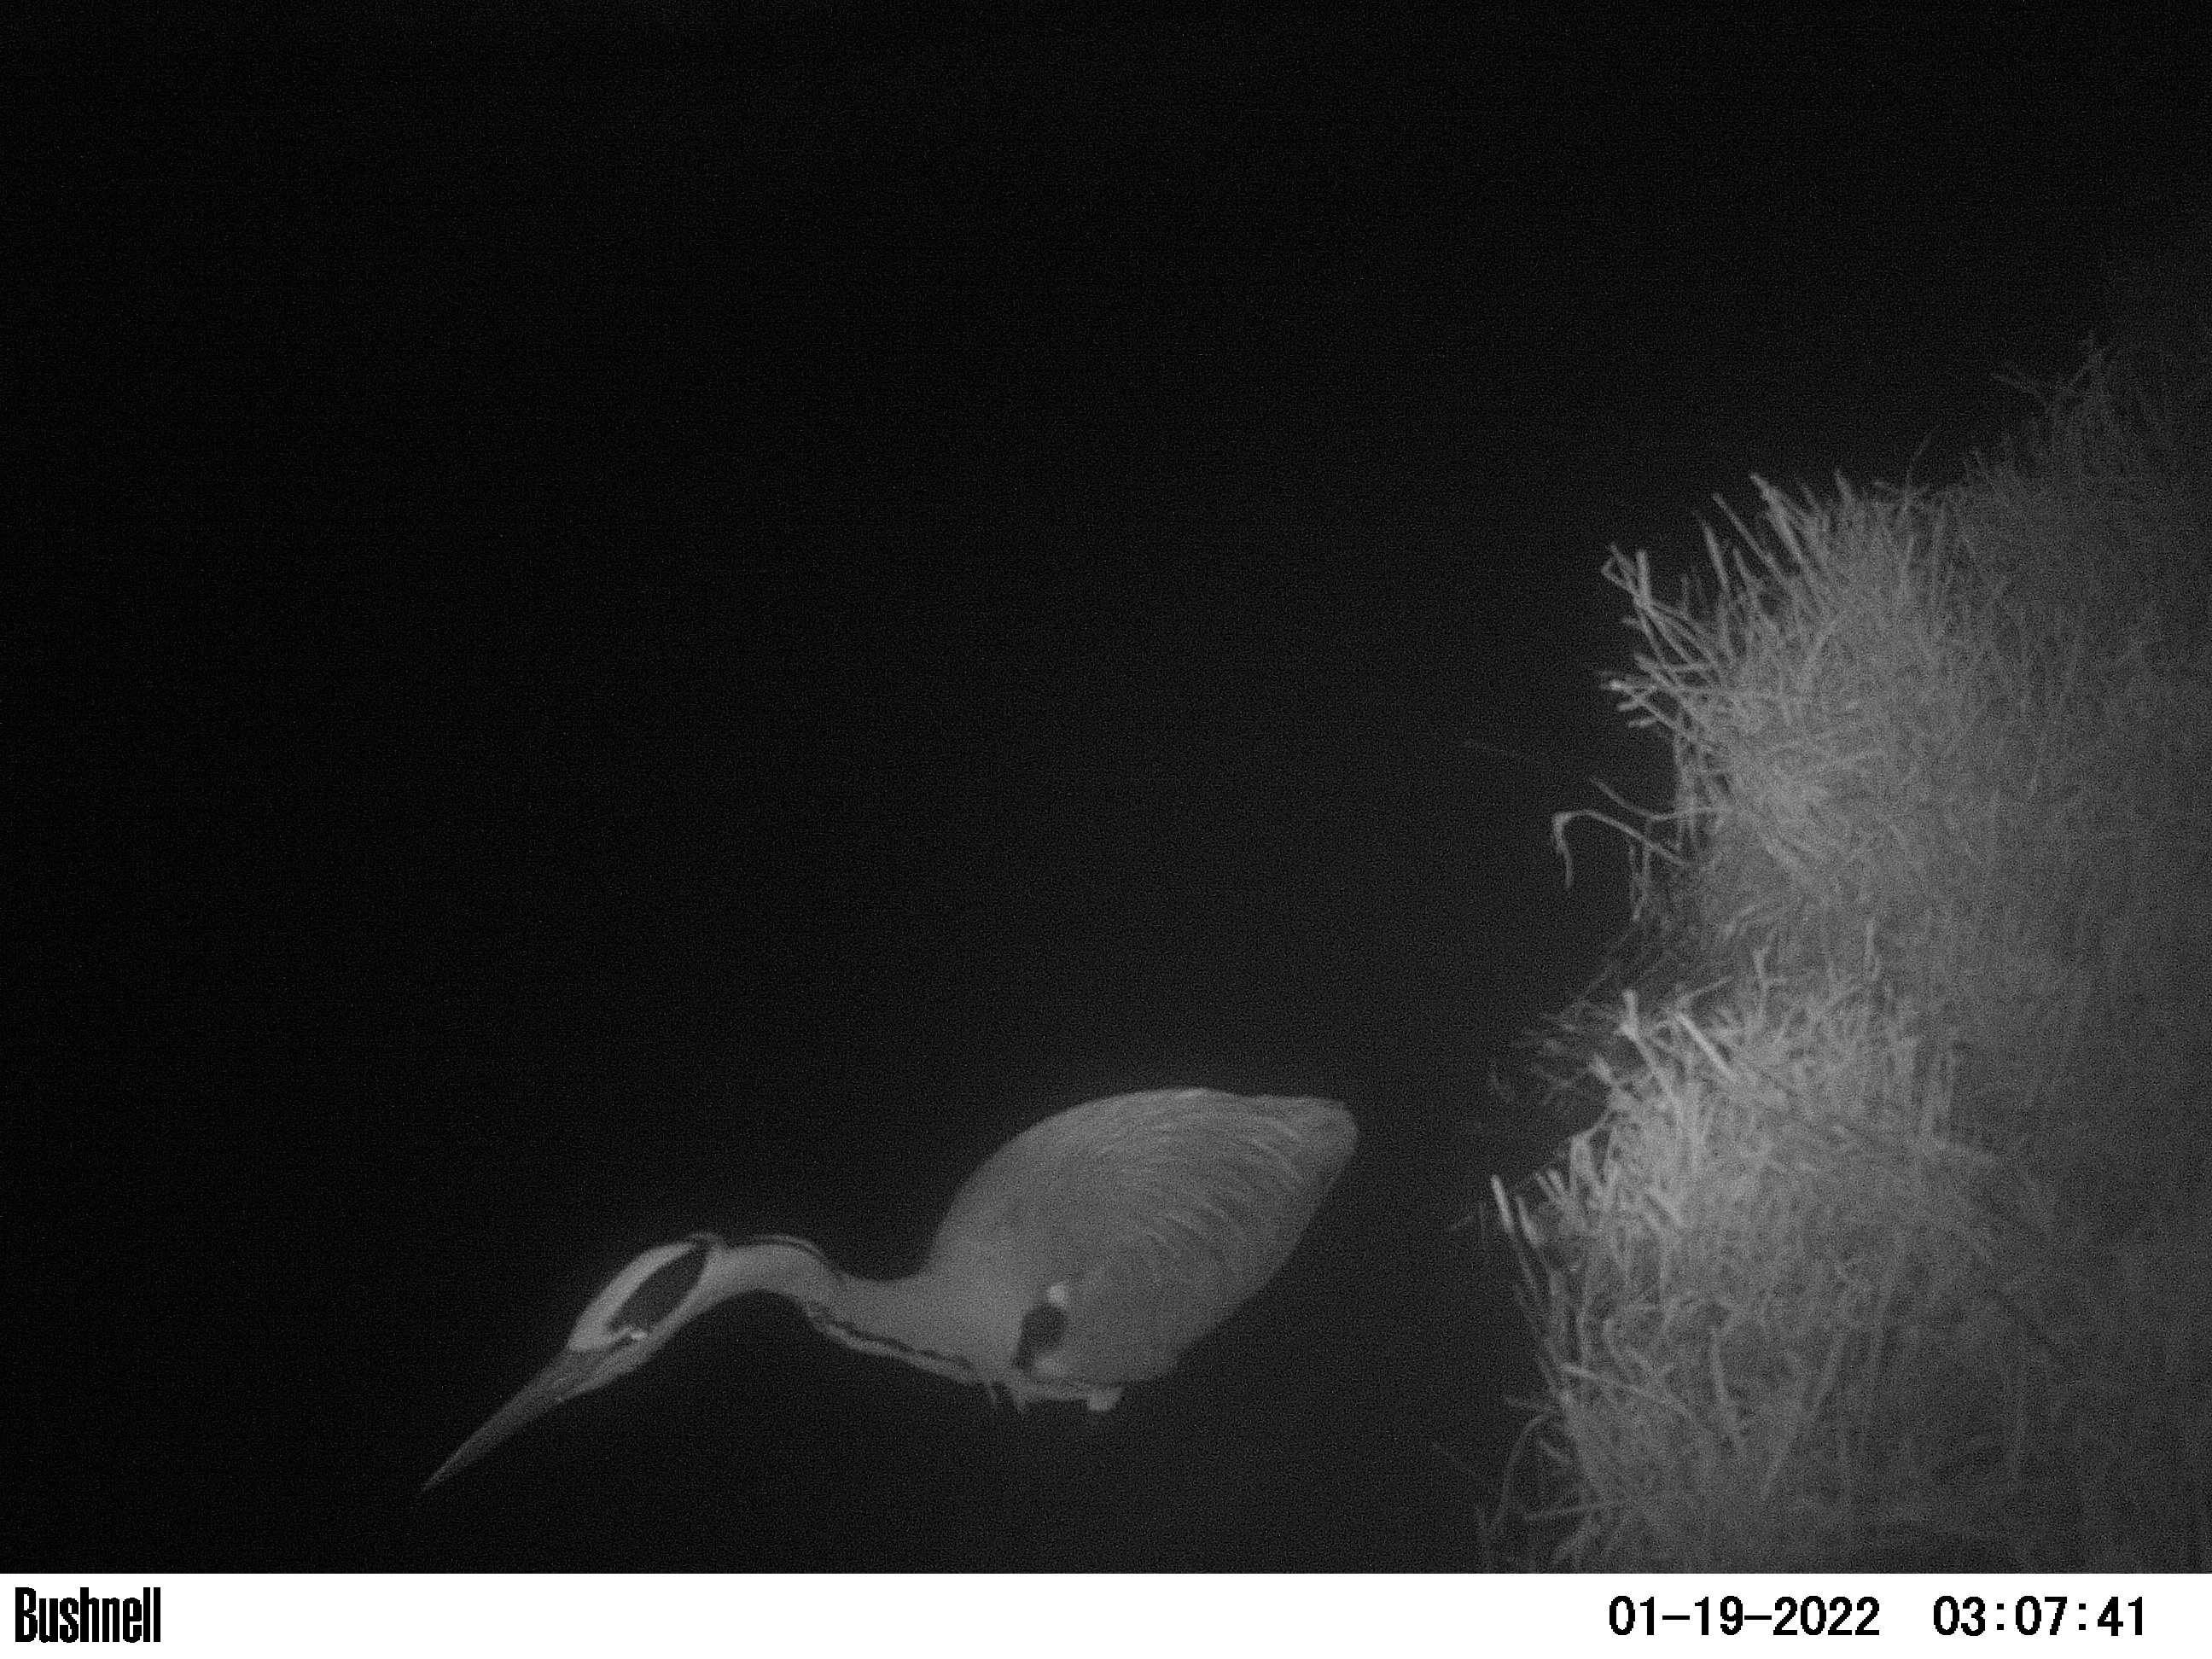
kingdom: Animalia
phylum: Chordata
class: Aves
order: Pelecaniformes
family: Ardeidae
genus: Ardea
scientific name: Ardea cinerea
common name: Grey heron
